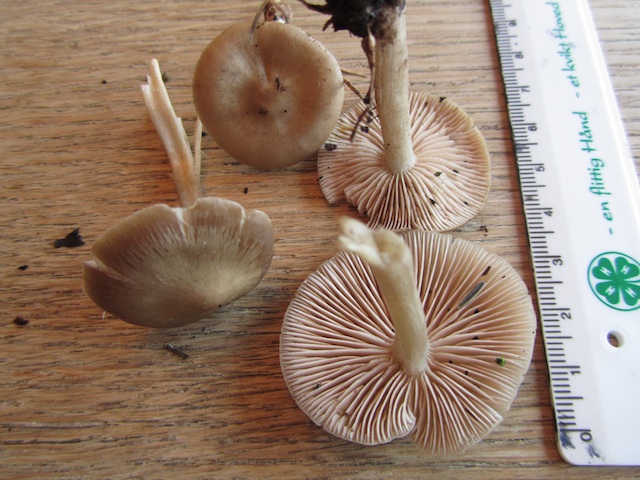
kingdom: Fungi
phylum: Basidiomycota
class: Agaricomycetes
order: Agaricales
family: Entolomataceae
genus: Entoloma
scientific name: Entoloma rhodopolium
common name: skov-rødblad
